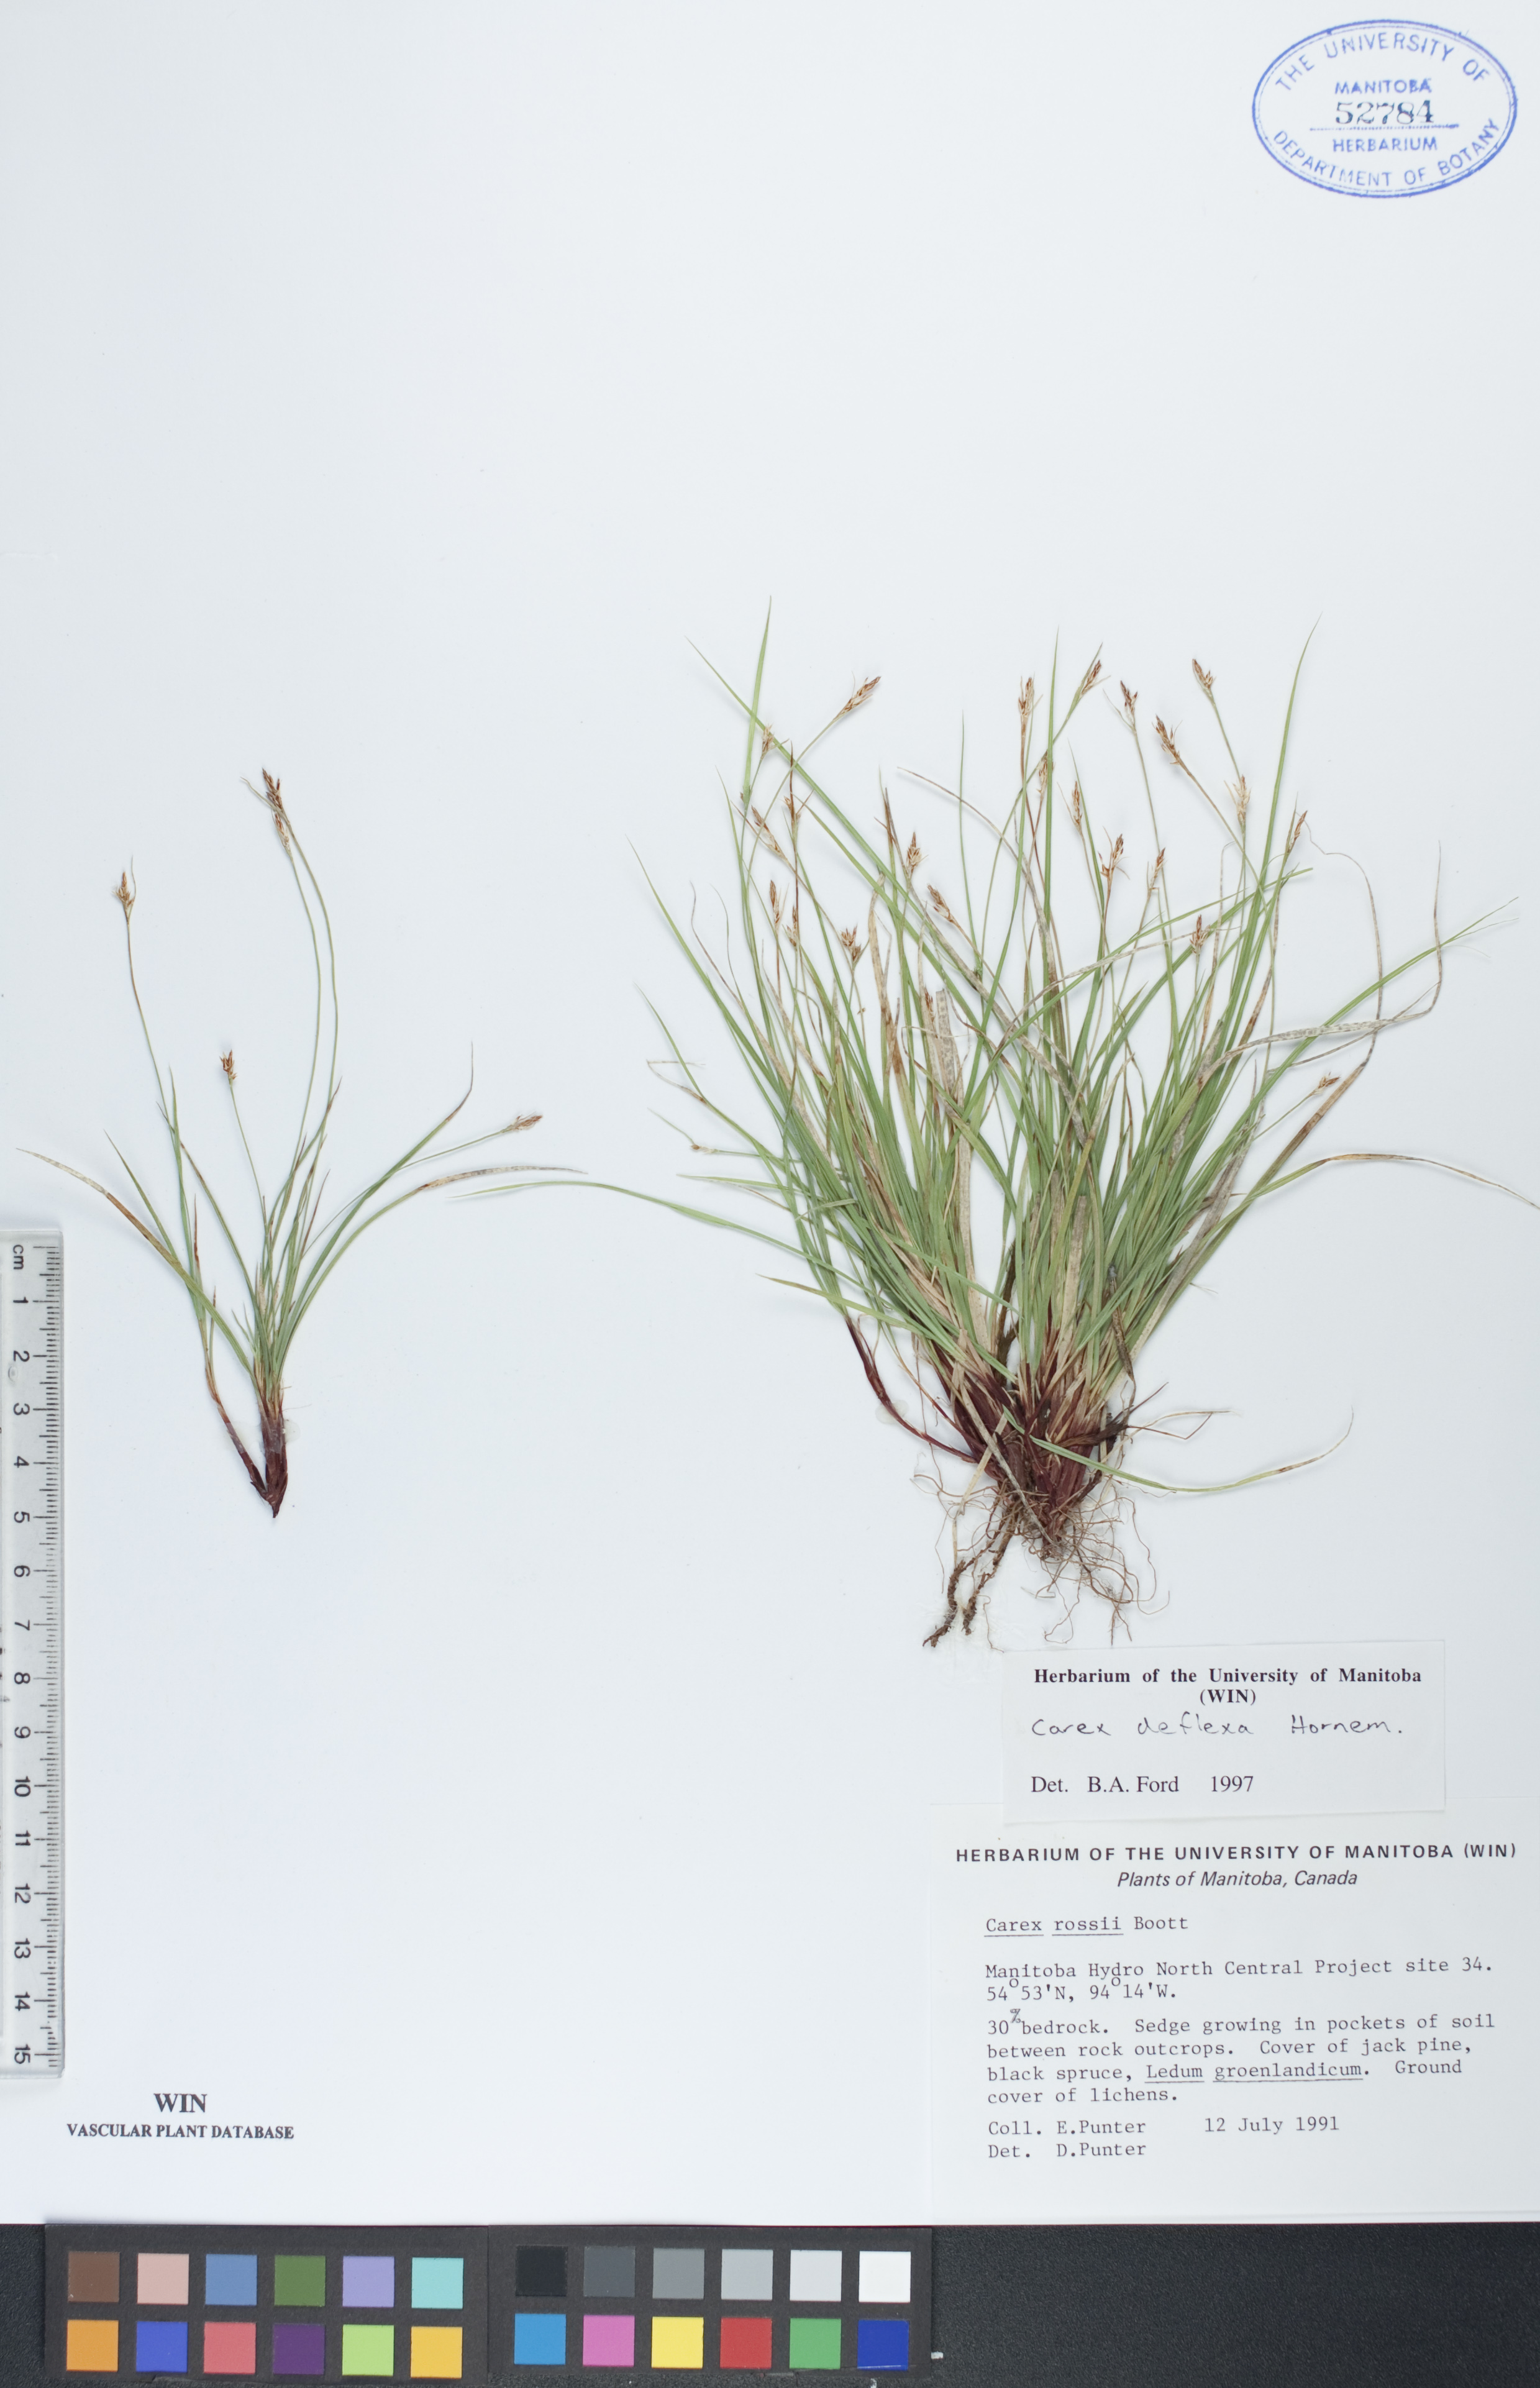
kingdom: Plantae
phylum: Tracheophyta
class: Liliopsida
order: Poales
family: Cyperaceae
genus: Carex
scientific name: Carex deflexa
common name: Bent northern sedge
